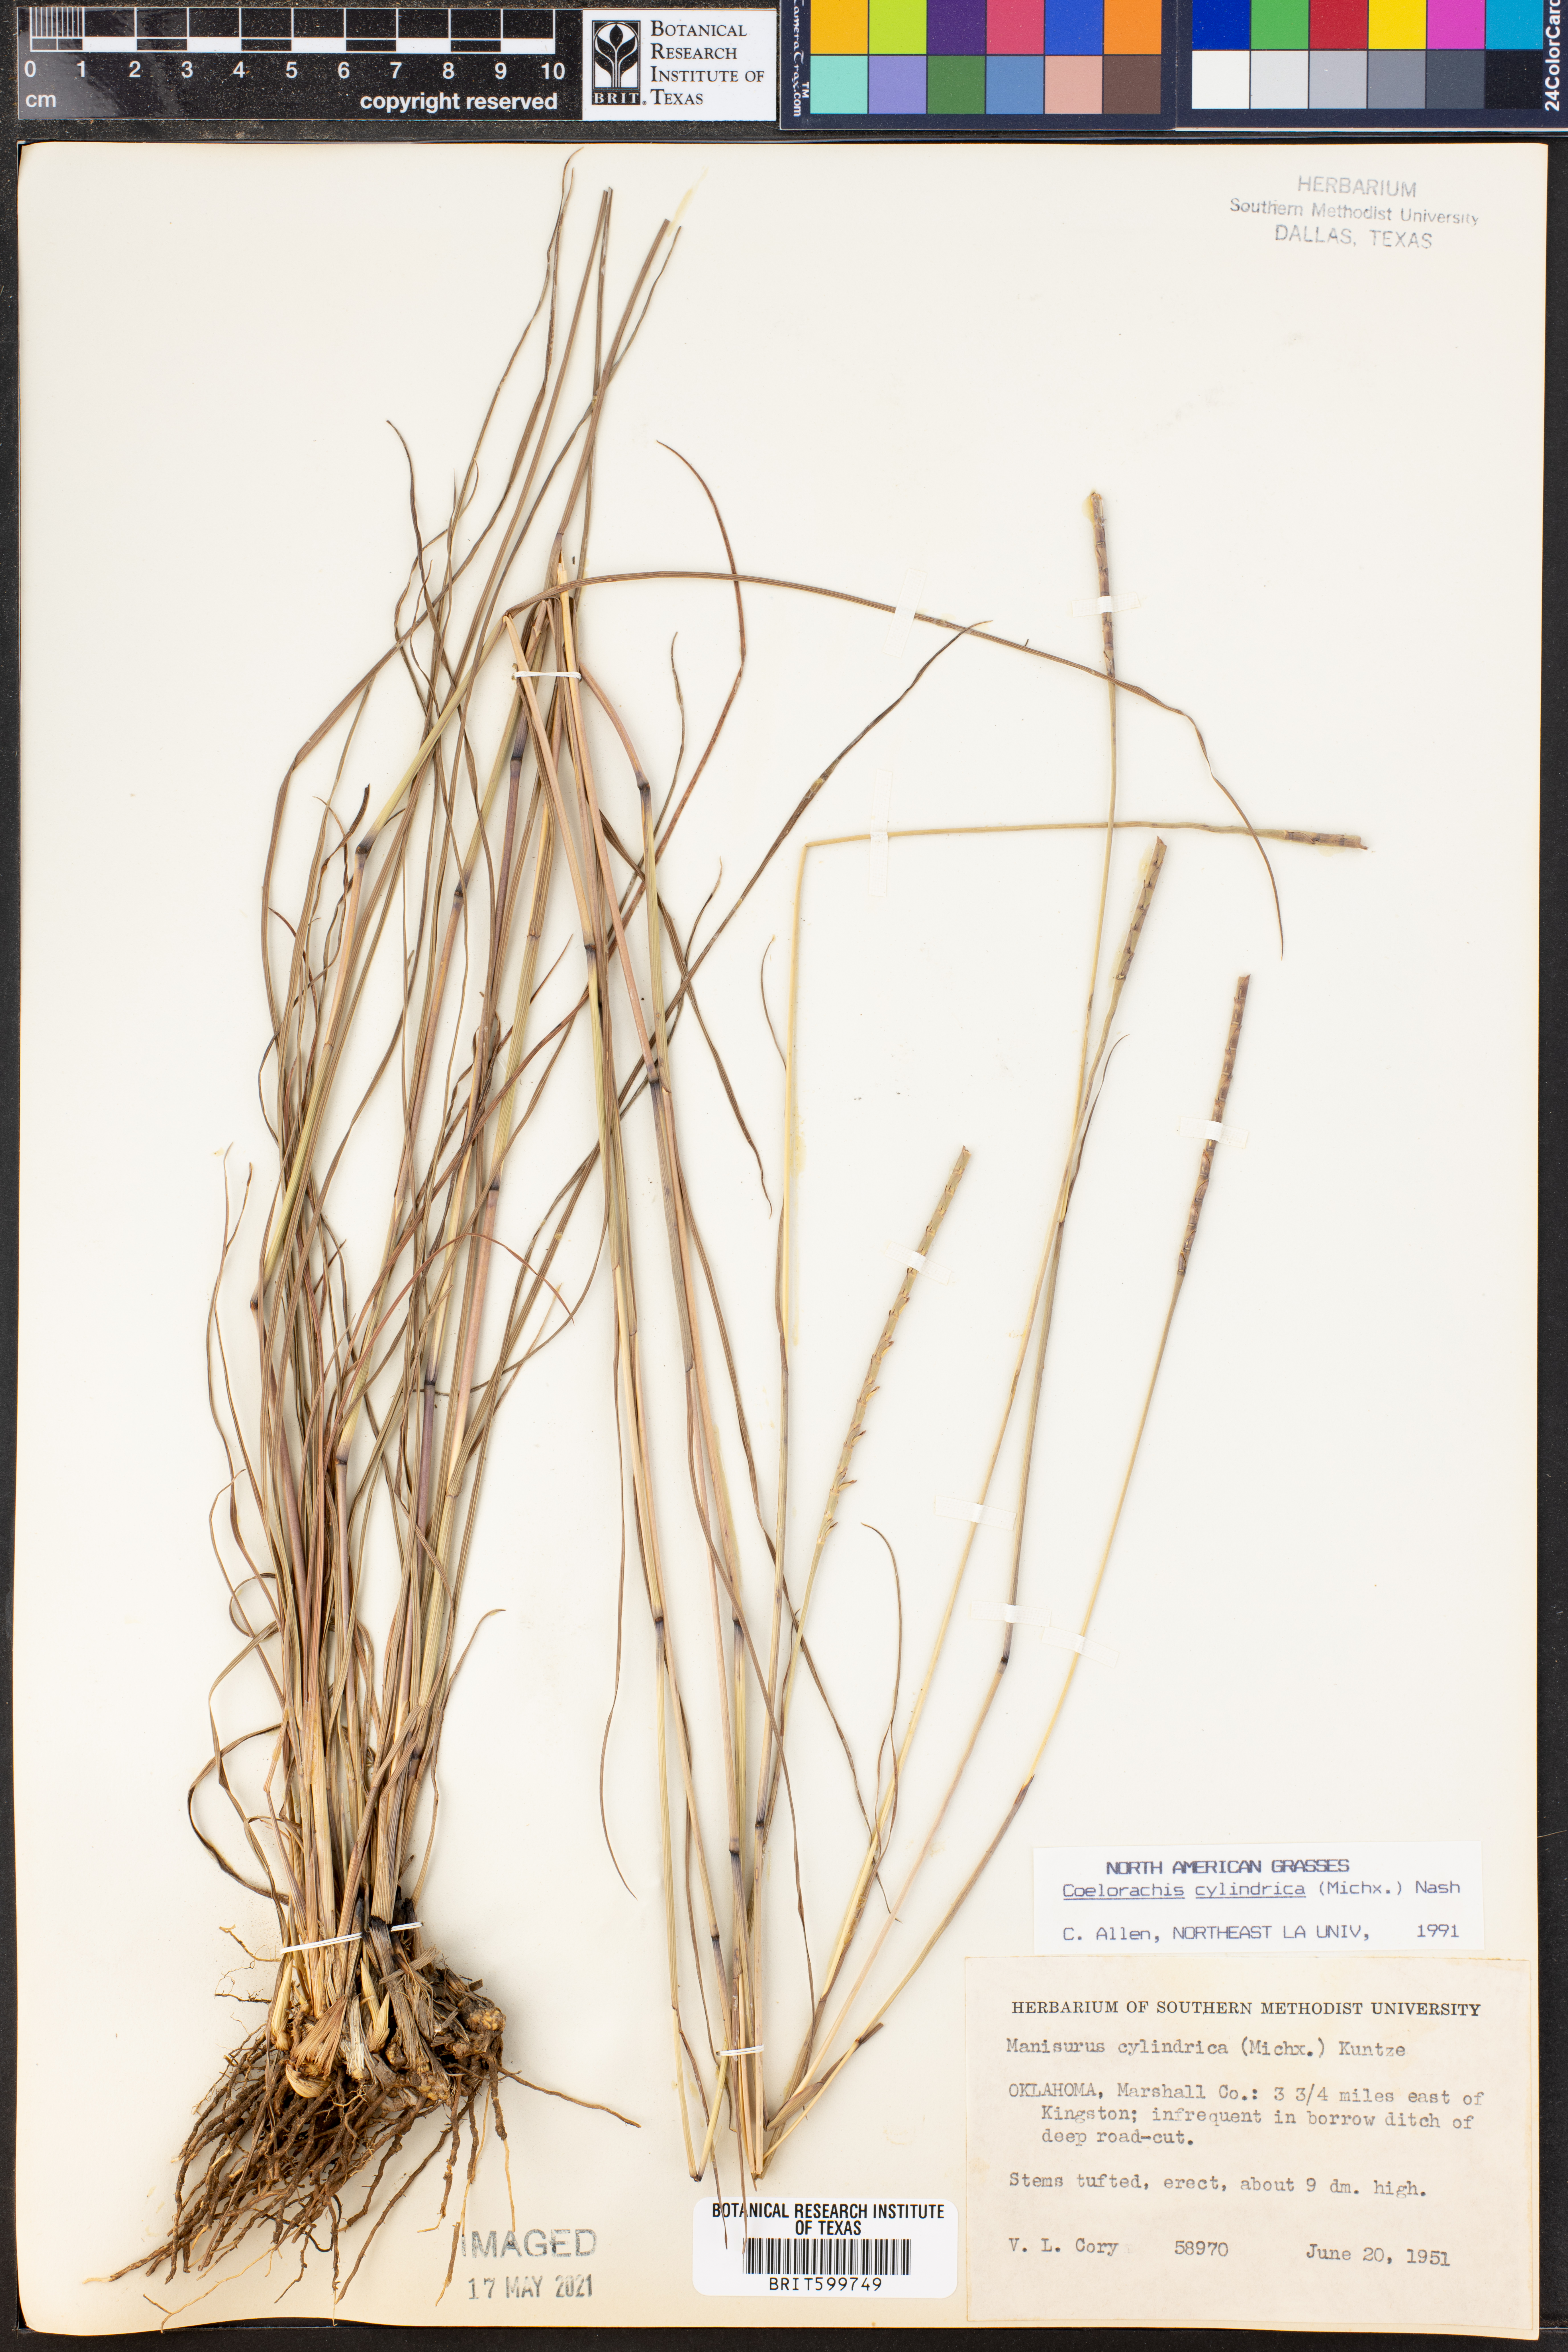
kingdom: Plantae
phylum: Tracheophyta
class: Liliopsida
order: Poales
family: Poaceae
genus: Rottboellia
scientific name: Rottboellia campestris
